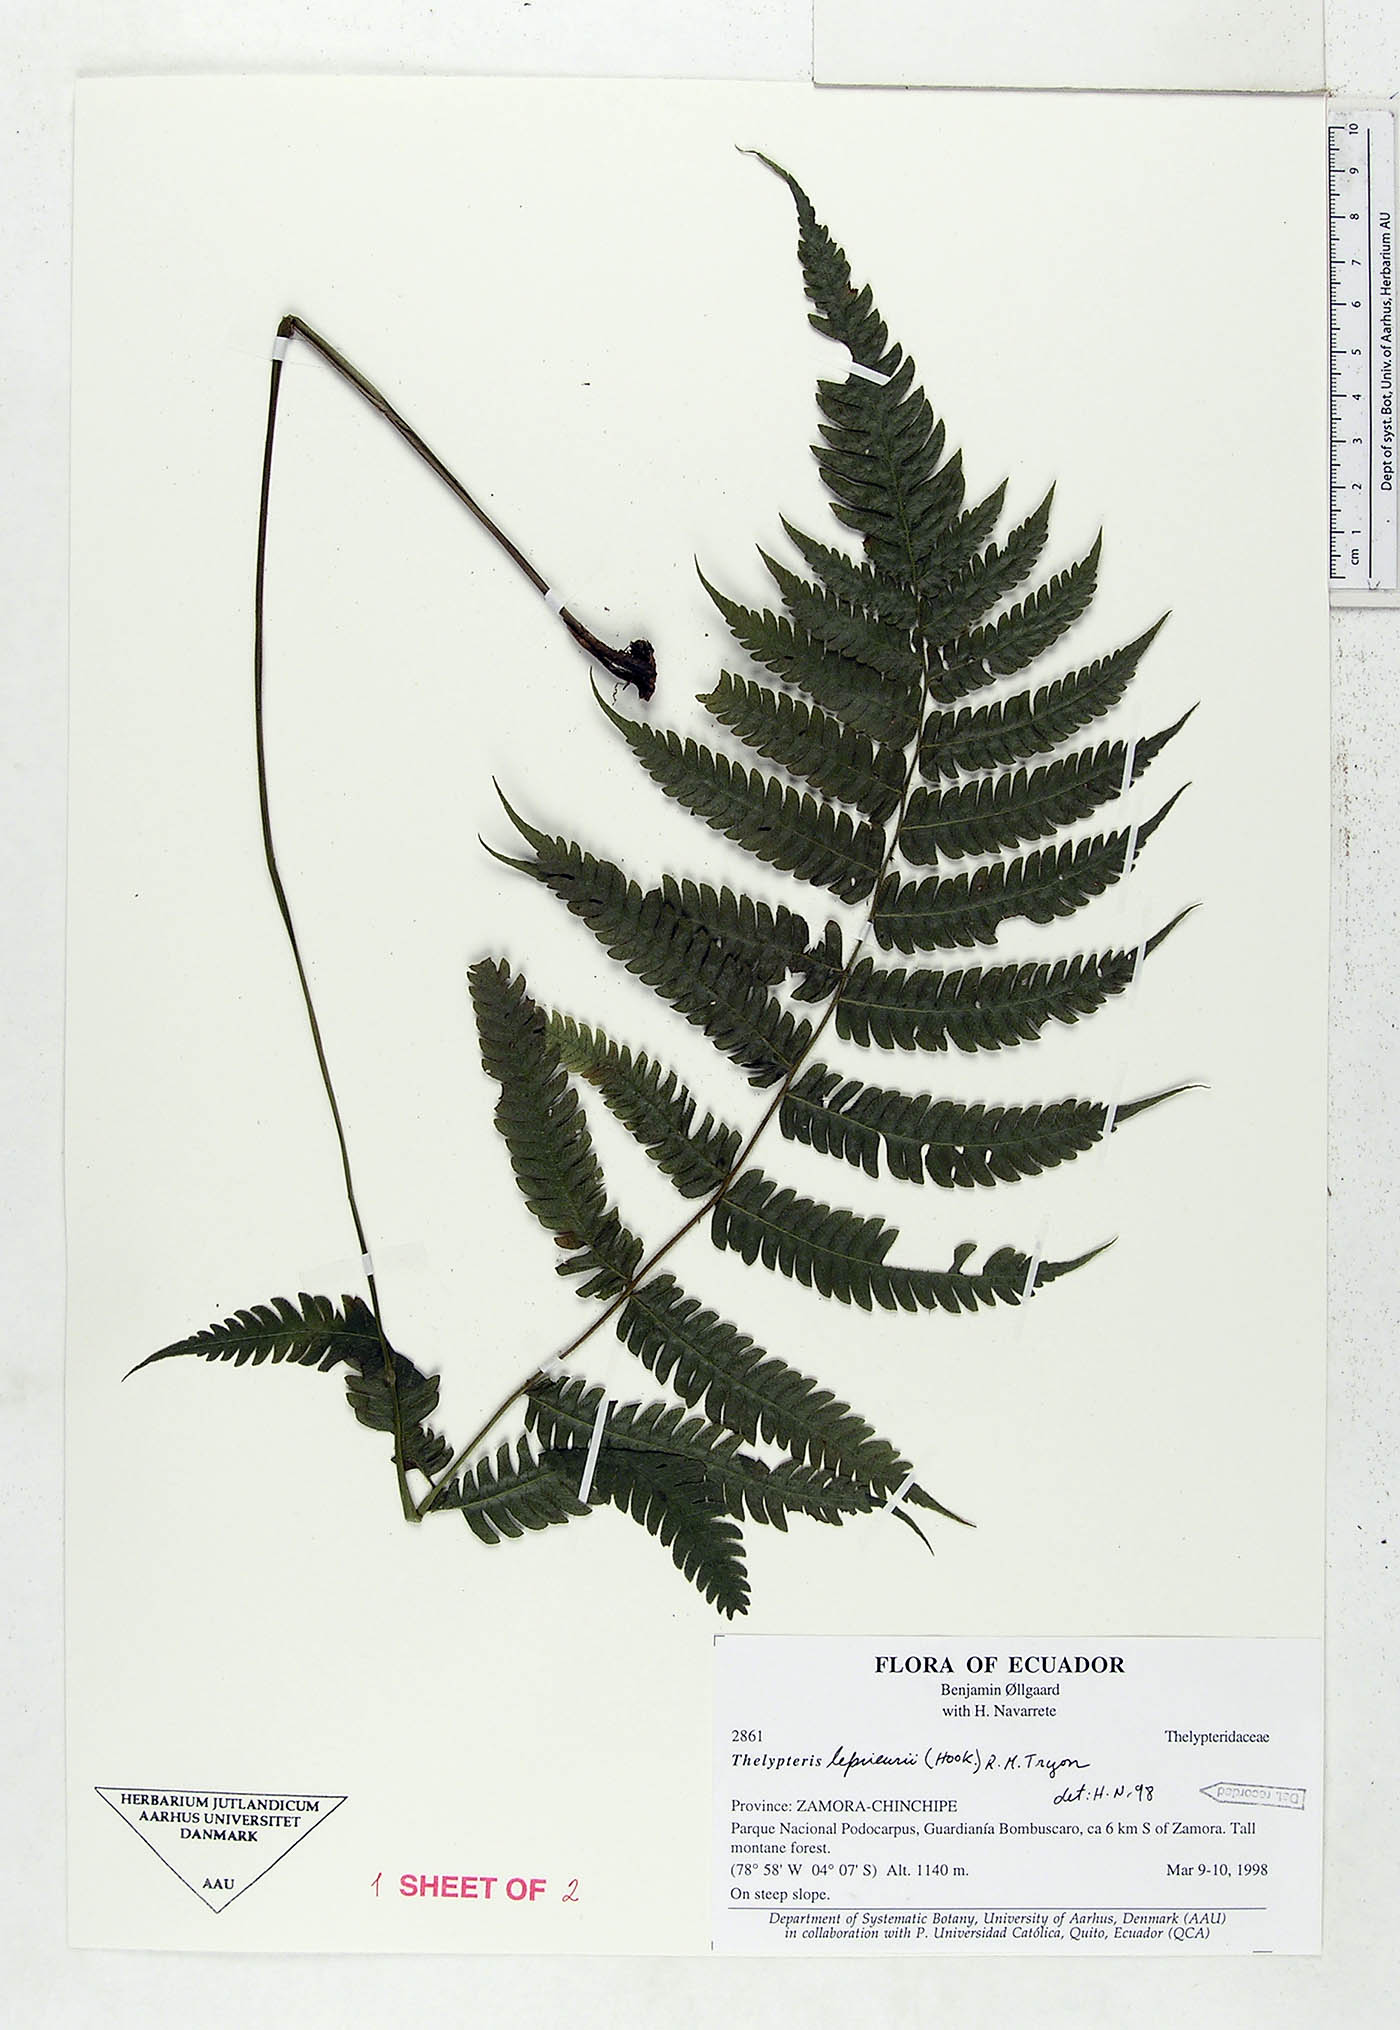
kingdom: Plantae
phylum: Tracheophyta
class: Polypodiopsida
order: Polypodiales
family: Thelypteridaceae
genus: Steiropteris
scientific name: Steiropteris leprieurii
